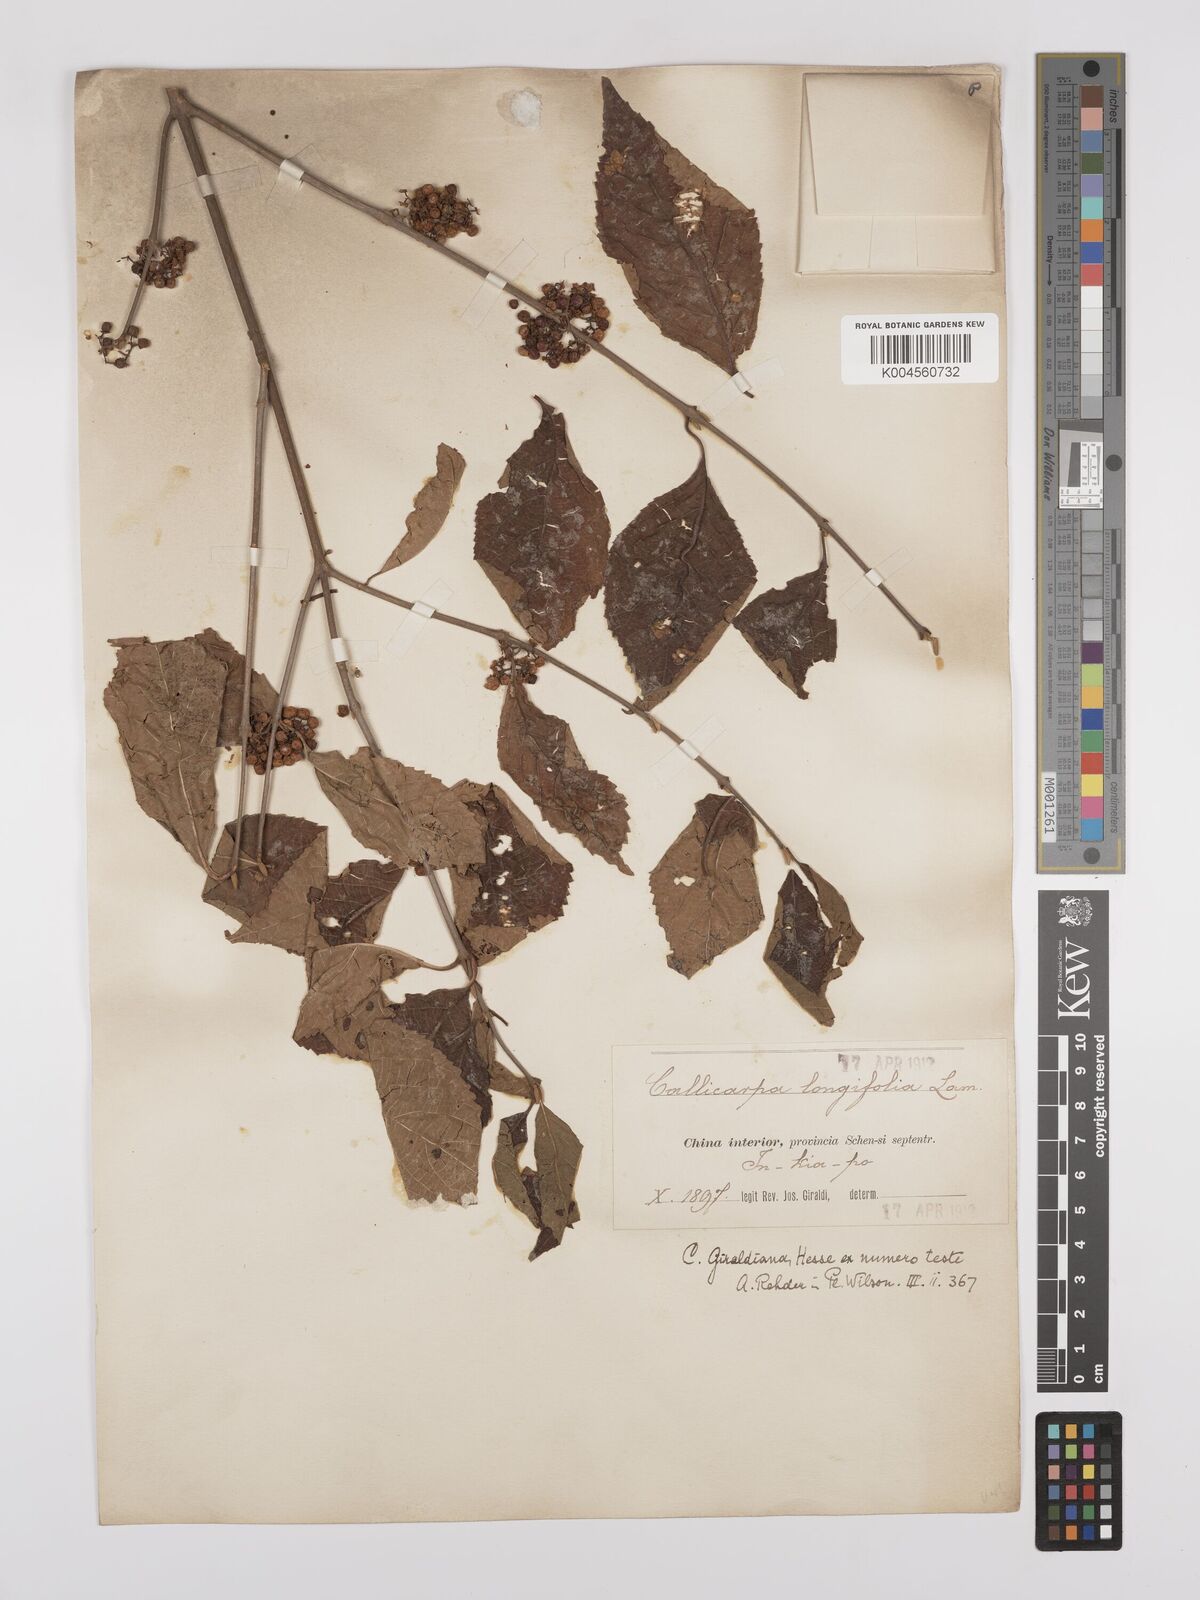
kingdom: Plantae
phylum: Tracheophyta
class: Magnoliopsida
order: Lamiales
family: Lamiaceae
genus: Callicarpa
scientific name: Callicarpa japonica
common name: Japanese beauty-berry
